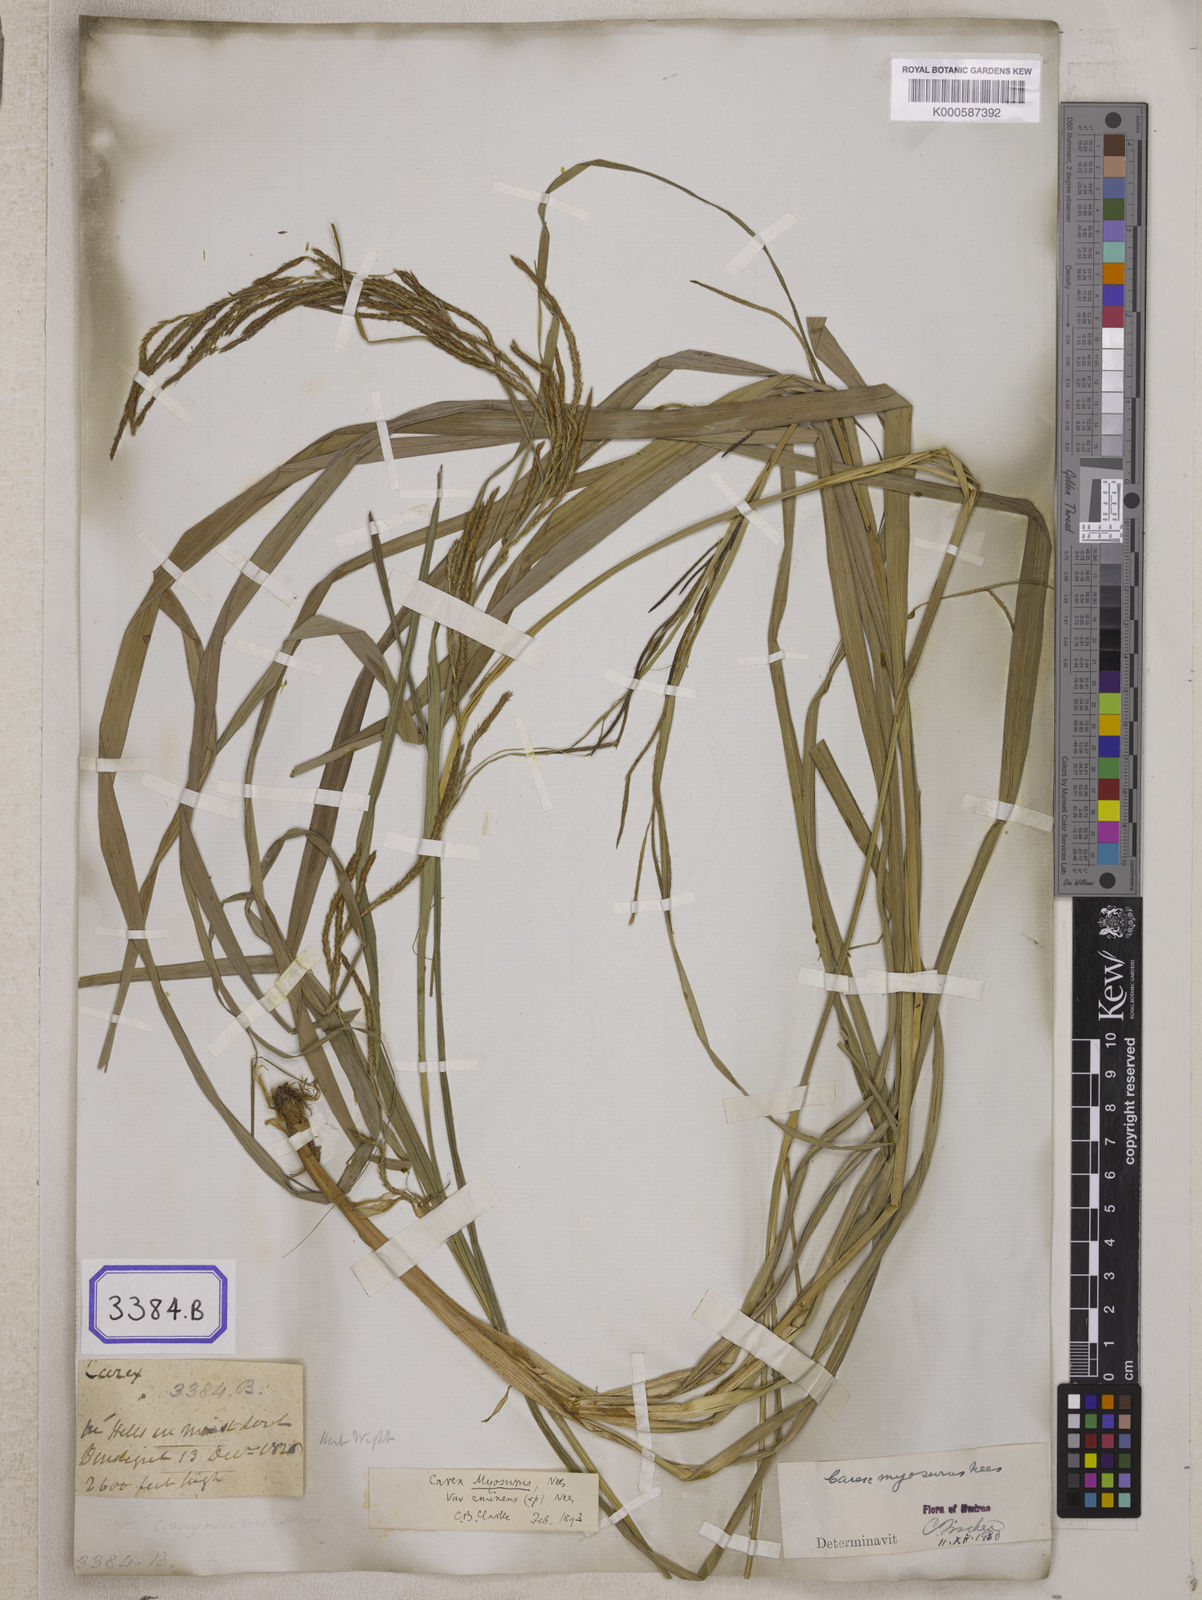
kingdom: Plantae
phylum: Tracheophyta
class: Liliopsida
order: Poales
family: Cyperaceae
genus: Carex
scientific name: Carex
